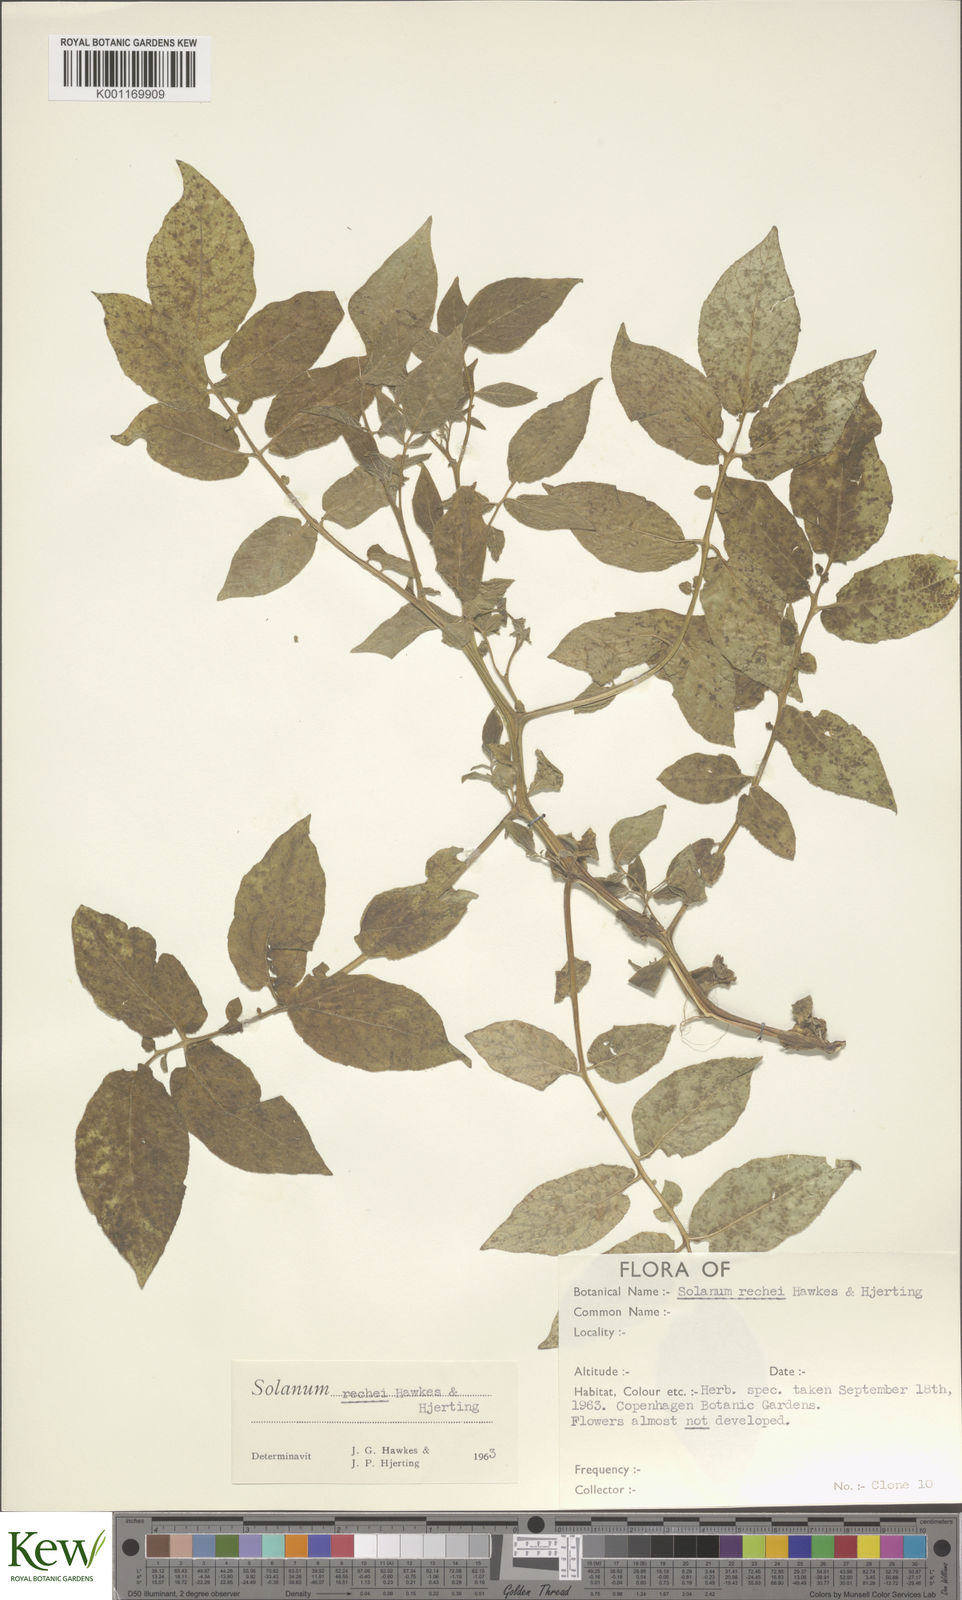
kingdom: Plantae
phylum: Tracheophyta
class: Magnoliopsida
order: Solanales
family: Solanaceae
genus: Solanum
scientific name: Solanum rechei
